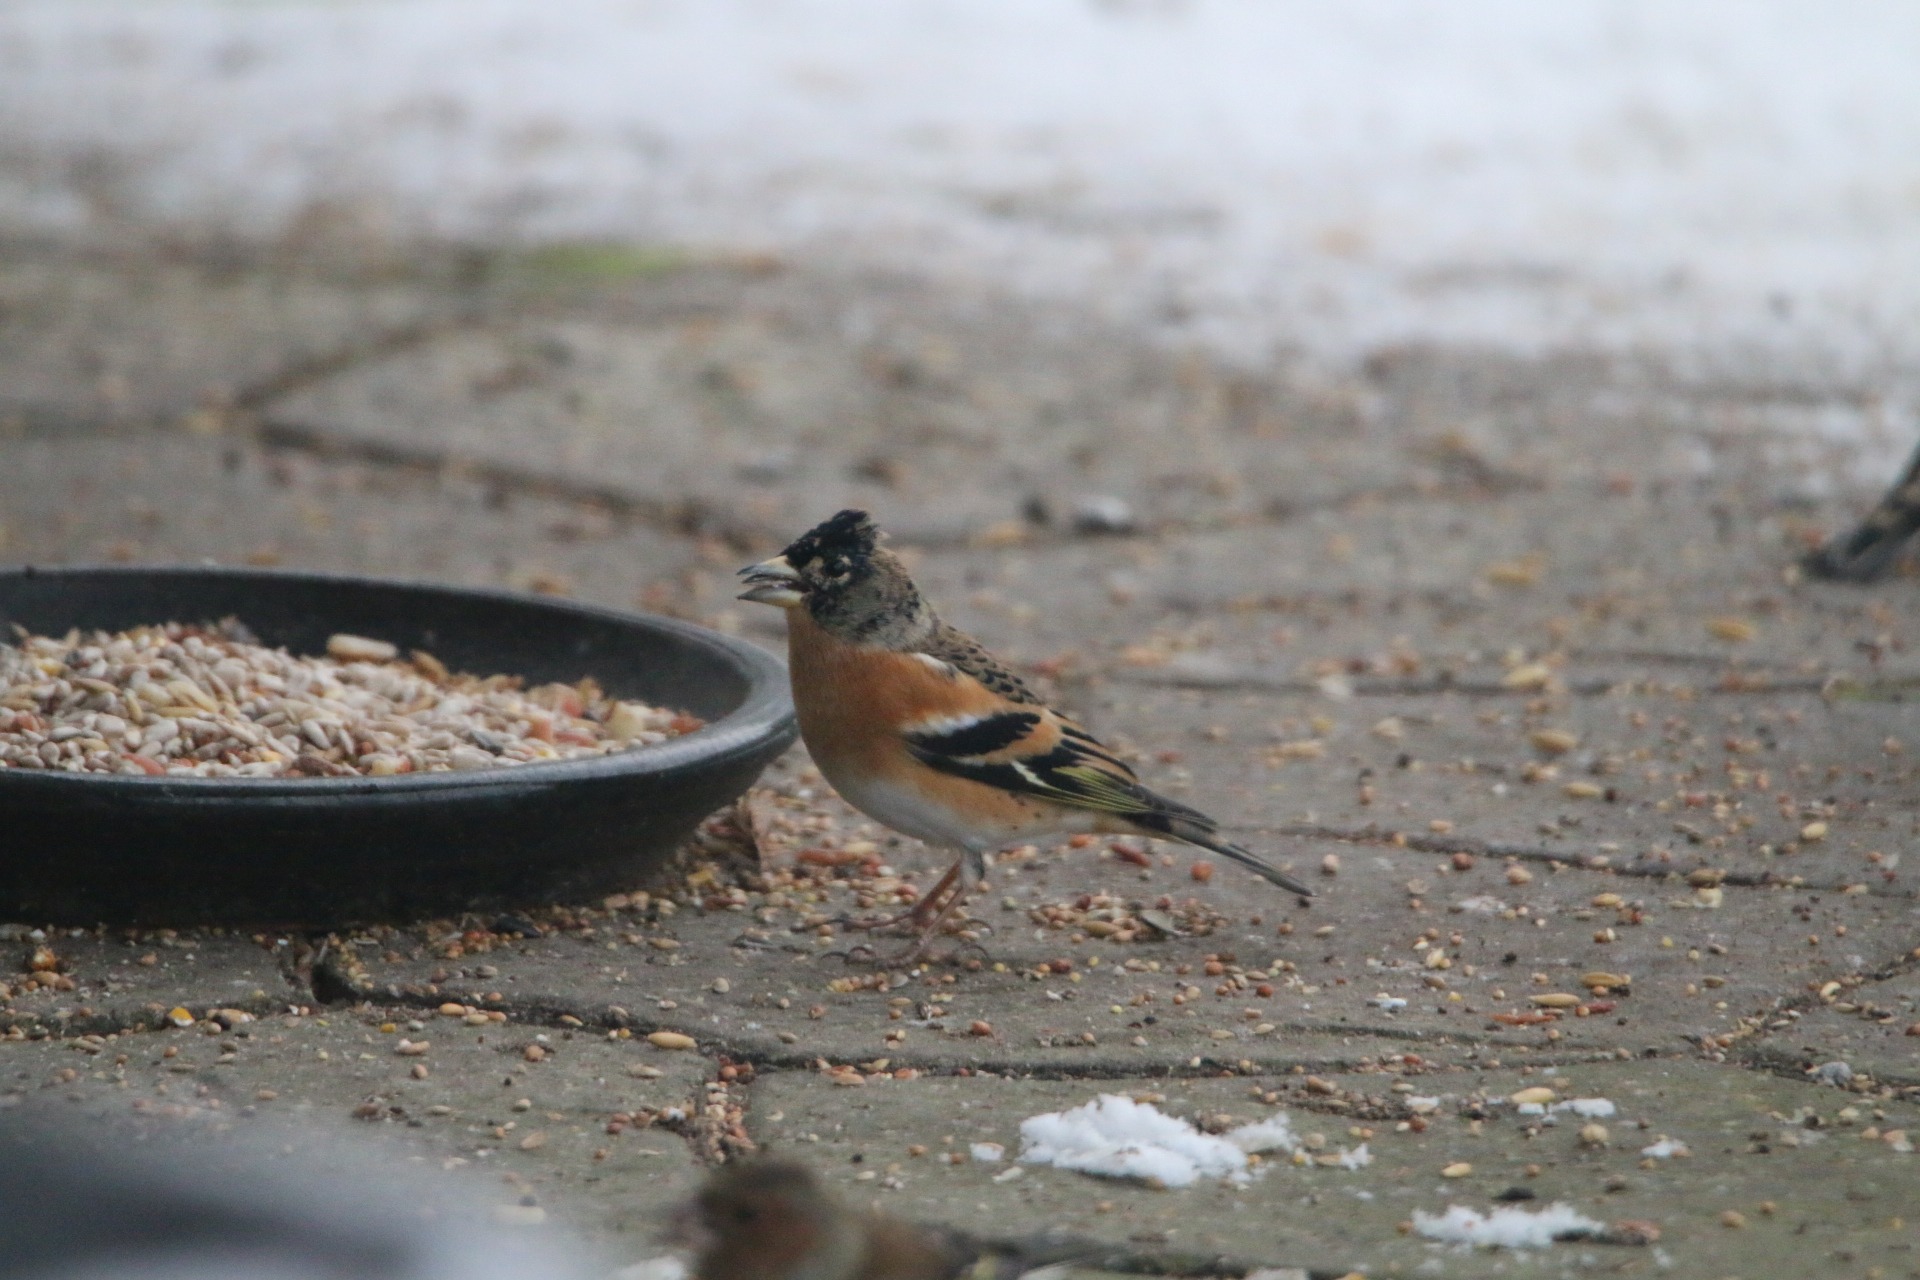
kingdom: Animalia
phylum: Chordata
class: Aves
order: Passeriformes
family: Fringillidae
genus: Fringilla
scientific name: Fringilla montifringilla
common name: Kvækerfinke
